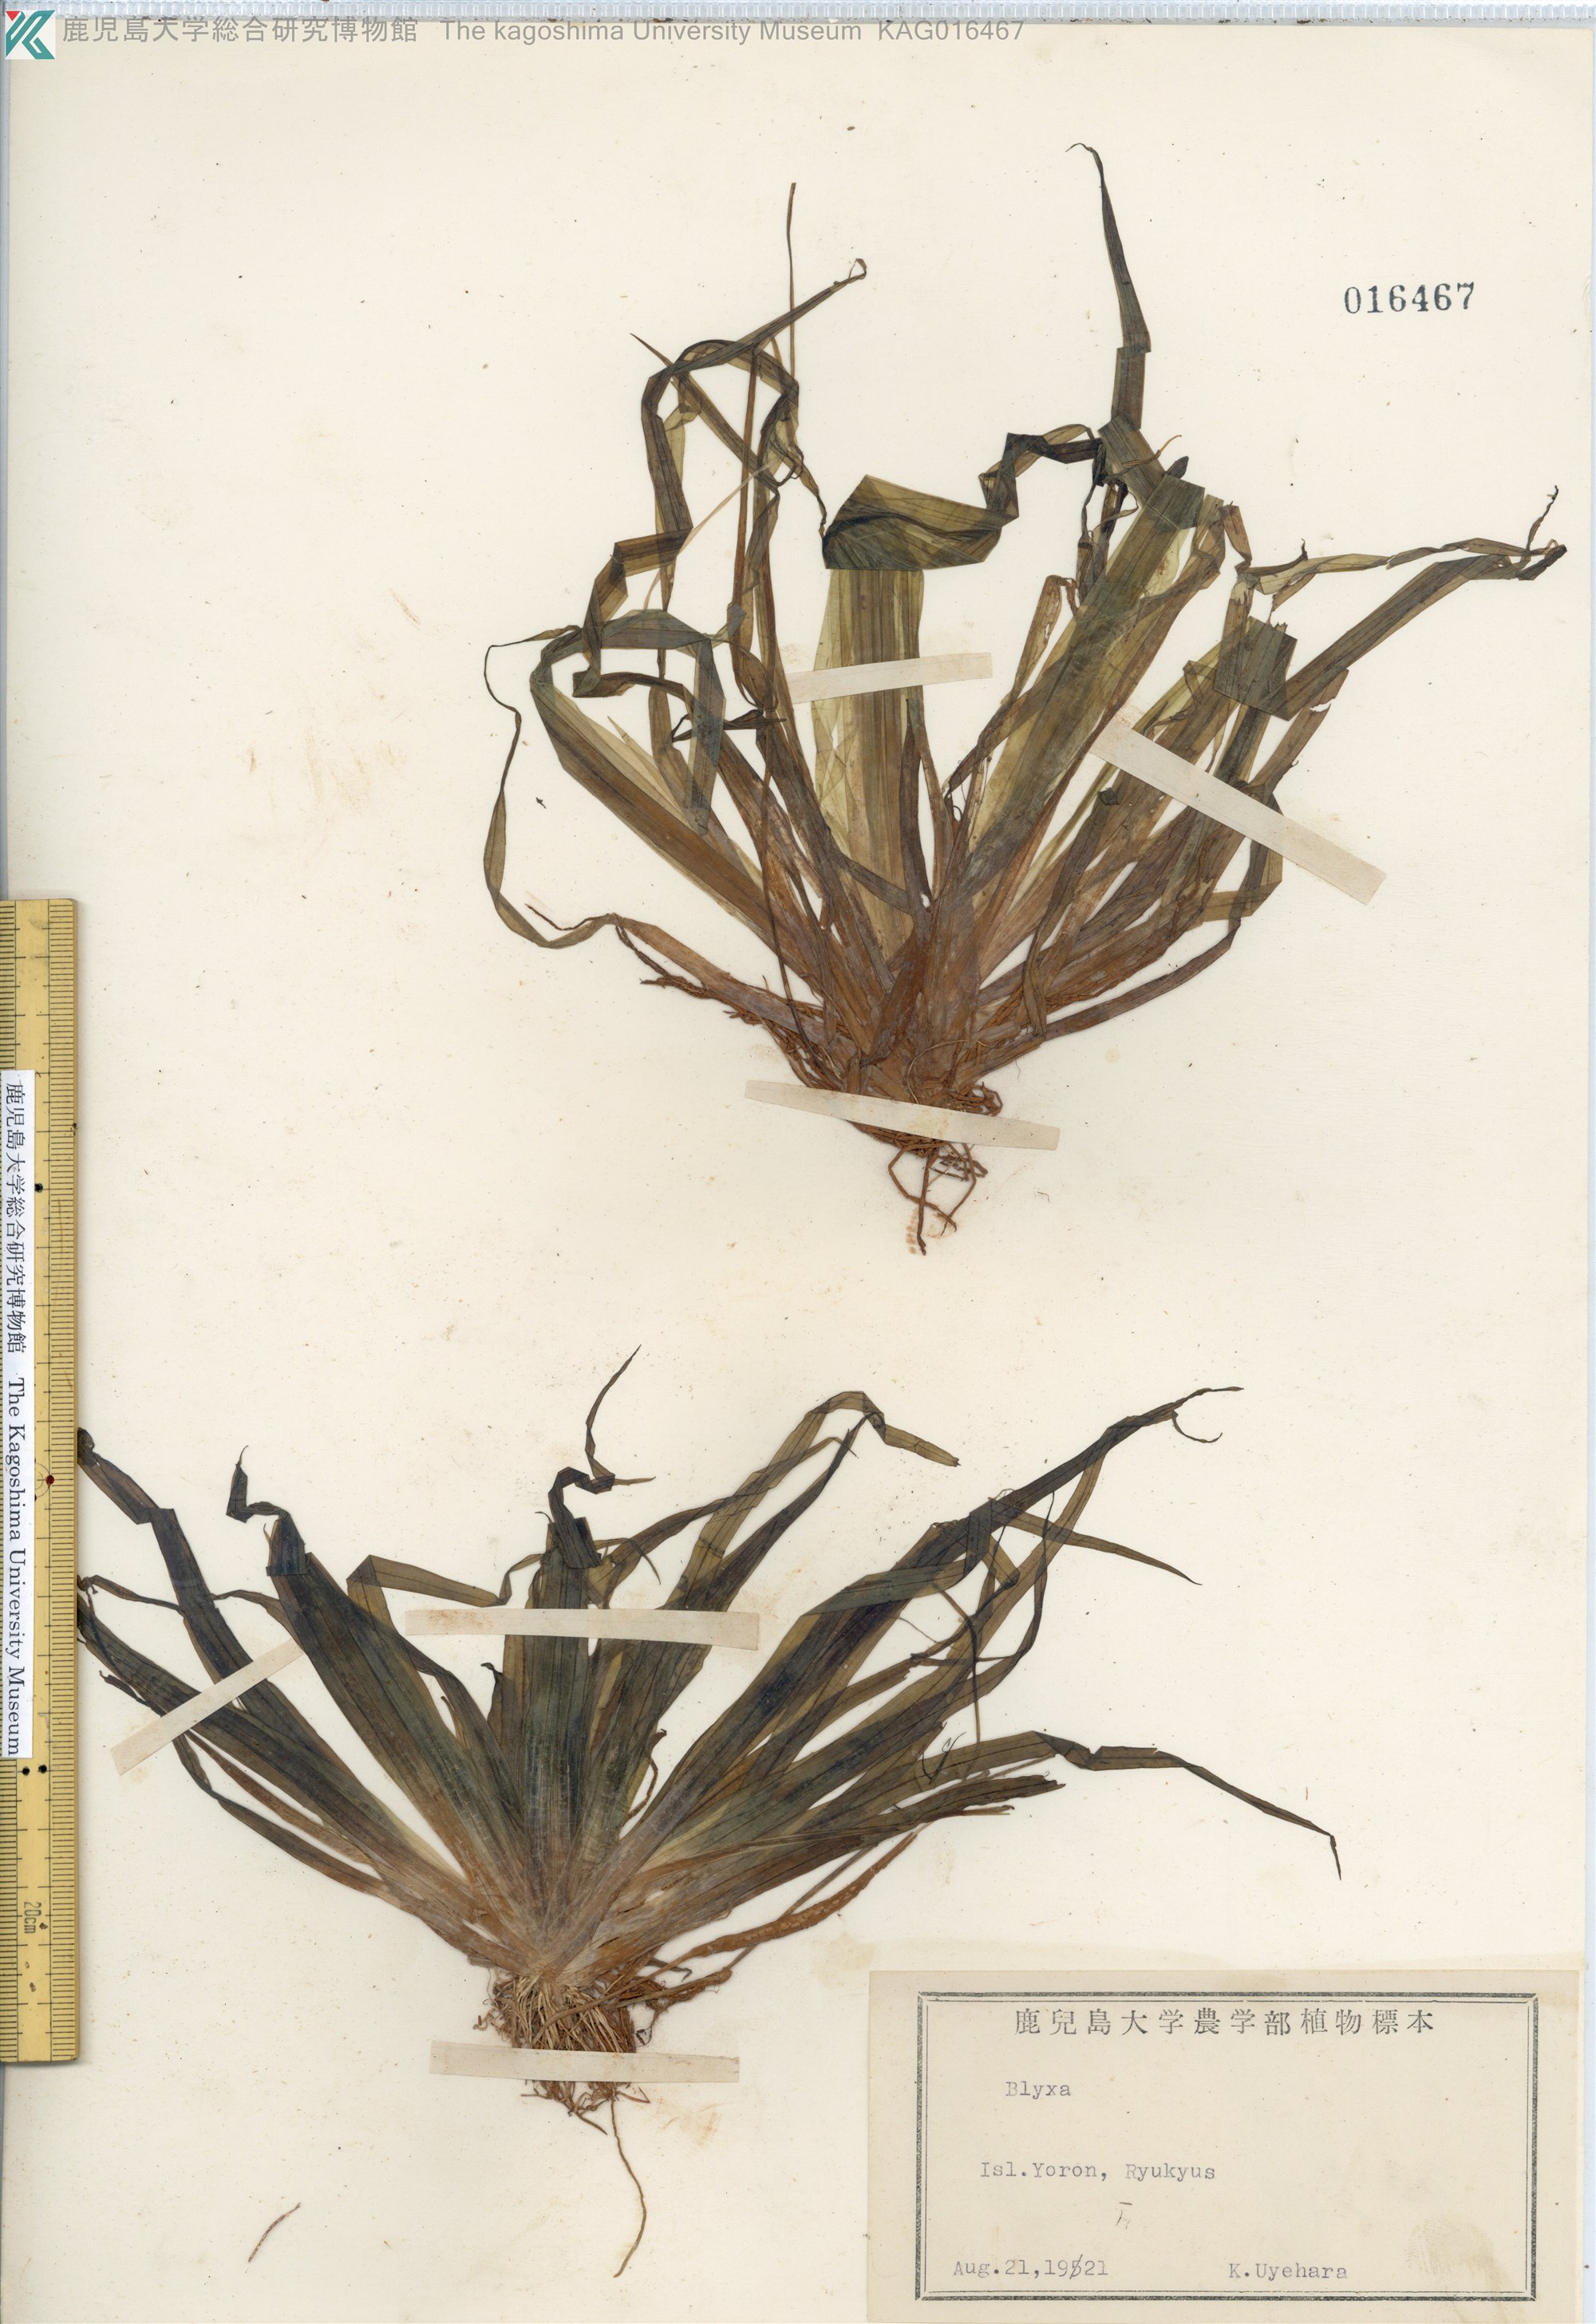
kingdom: Plantae
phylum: Tracheophyta
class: Liliopsida
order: Alismatales
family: Hydrocharitaceae
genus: Blyxa
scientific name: Blyxa aubertii
